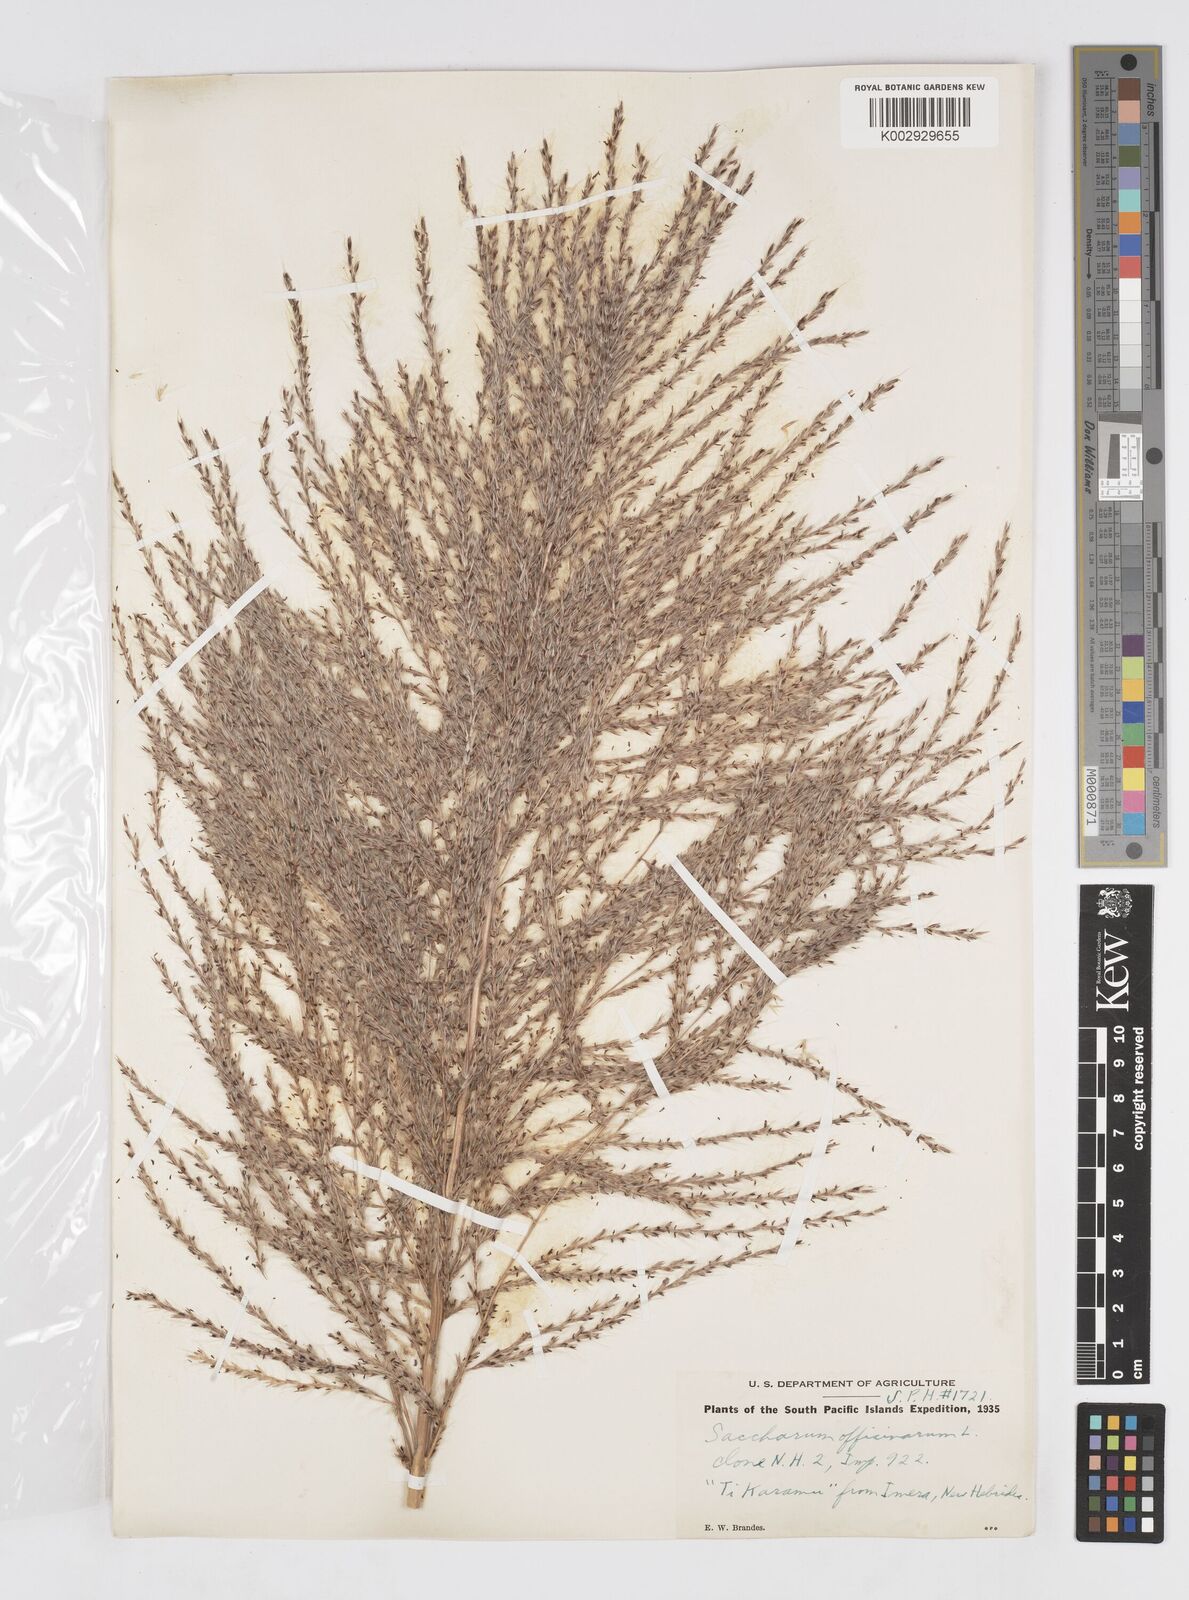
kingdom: Plantae
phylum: Tracheophyta
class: Liliopsida
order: Poales
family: Poaceae
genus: Saccharum
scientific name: Saccharum officinarum
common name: Sugarcane
